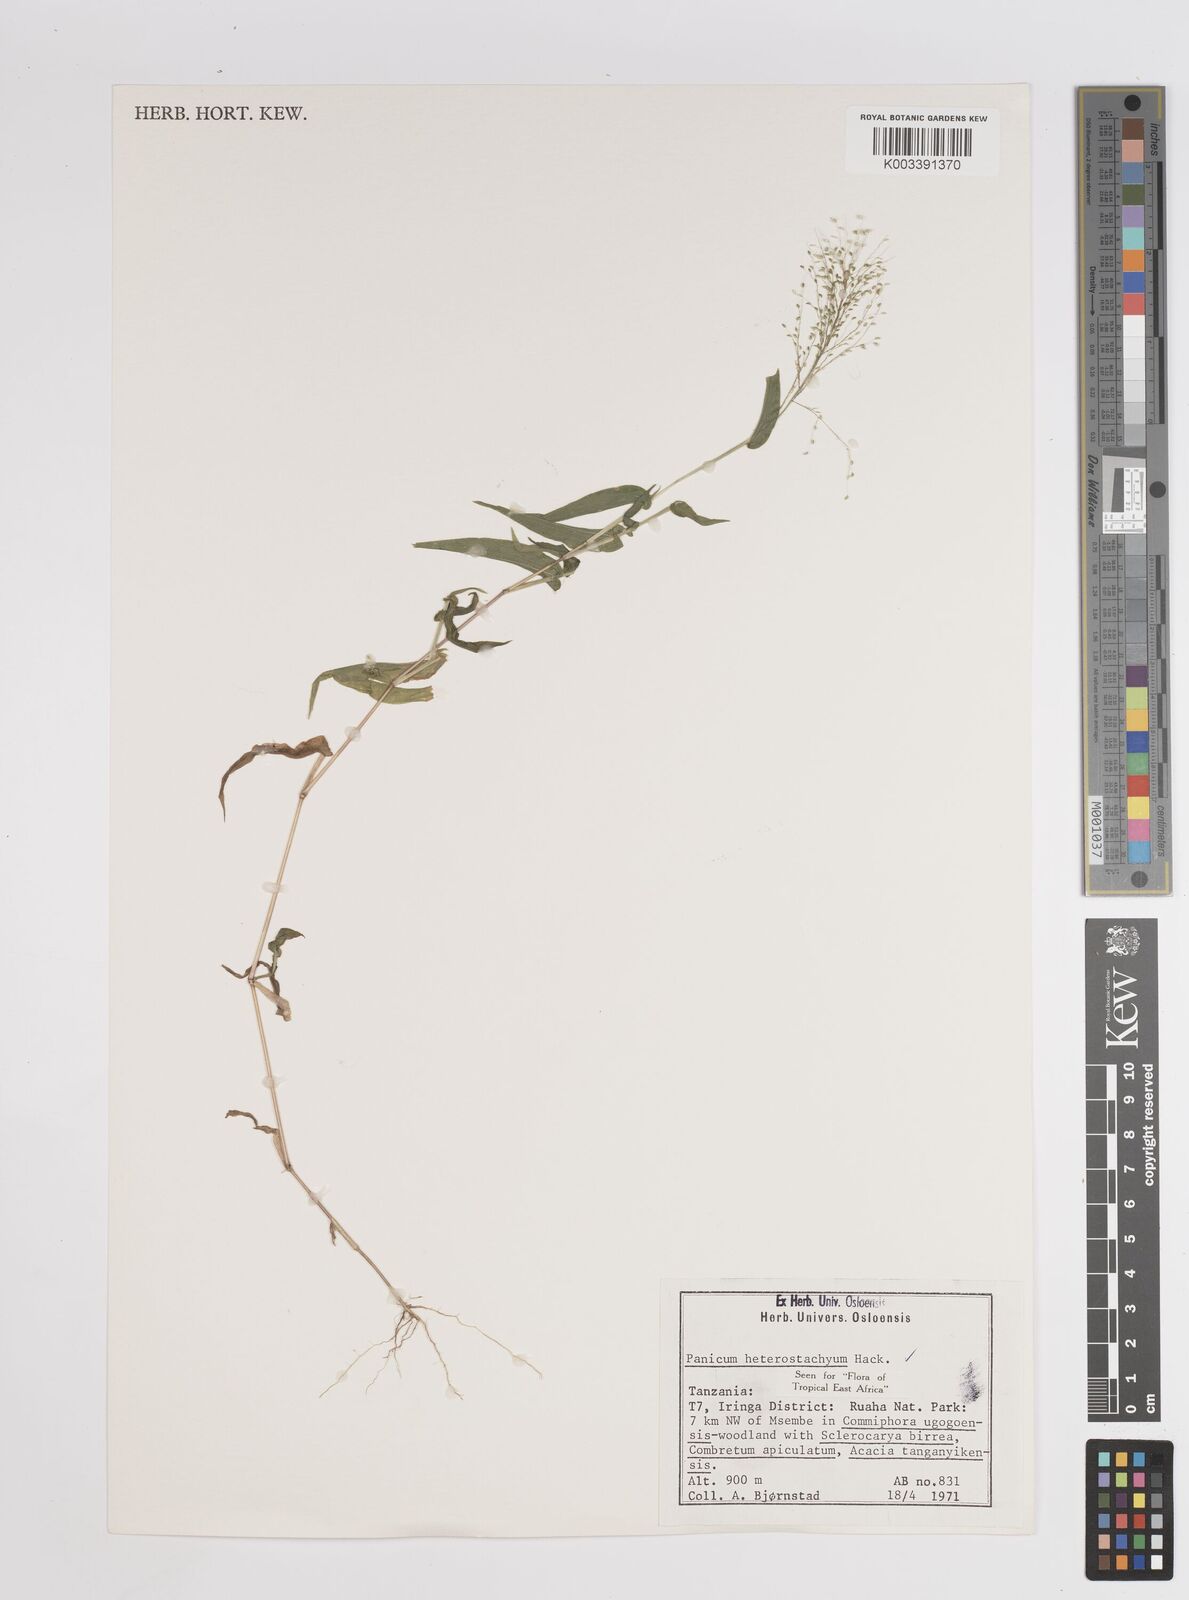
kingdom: Plantae
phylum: Tracheophyta
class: Liliopsida
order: Poales
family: Poaceae
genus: Panicum
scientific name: Panicum hirtum
